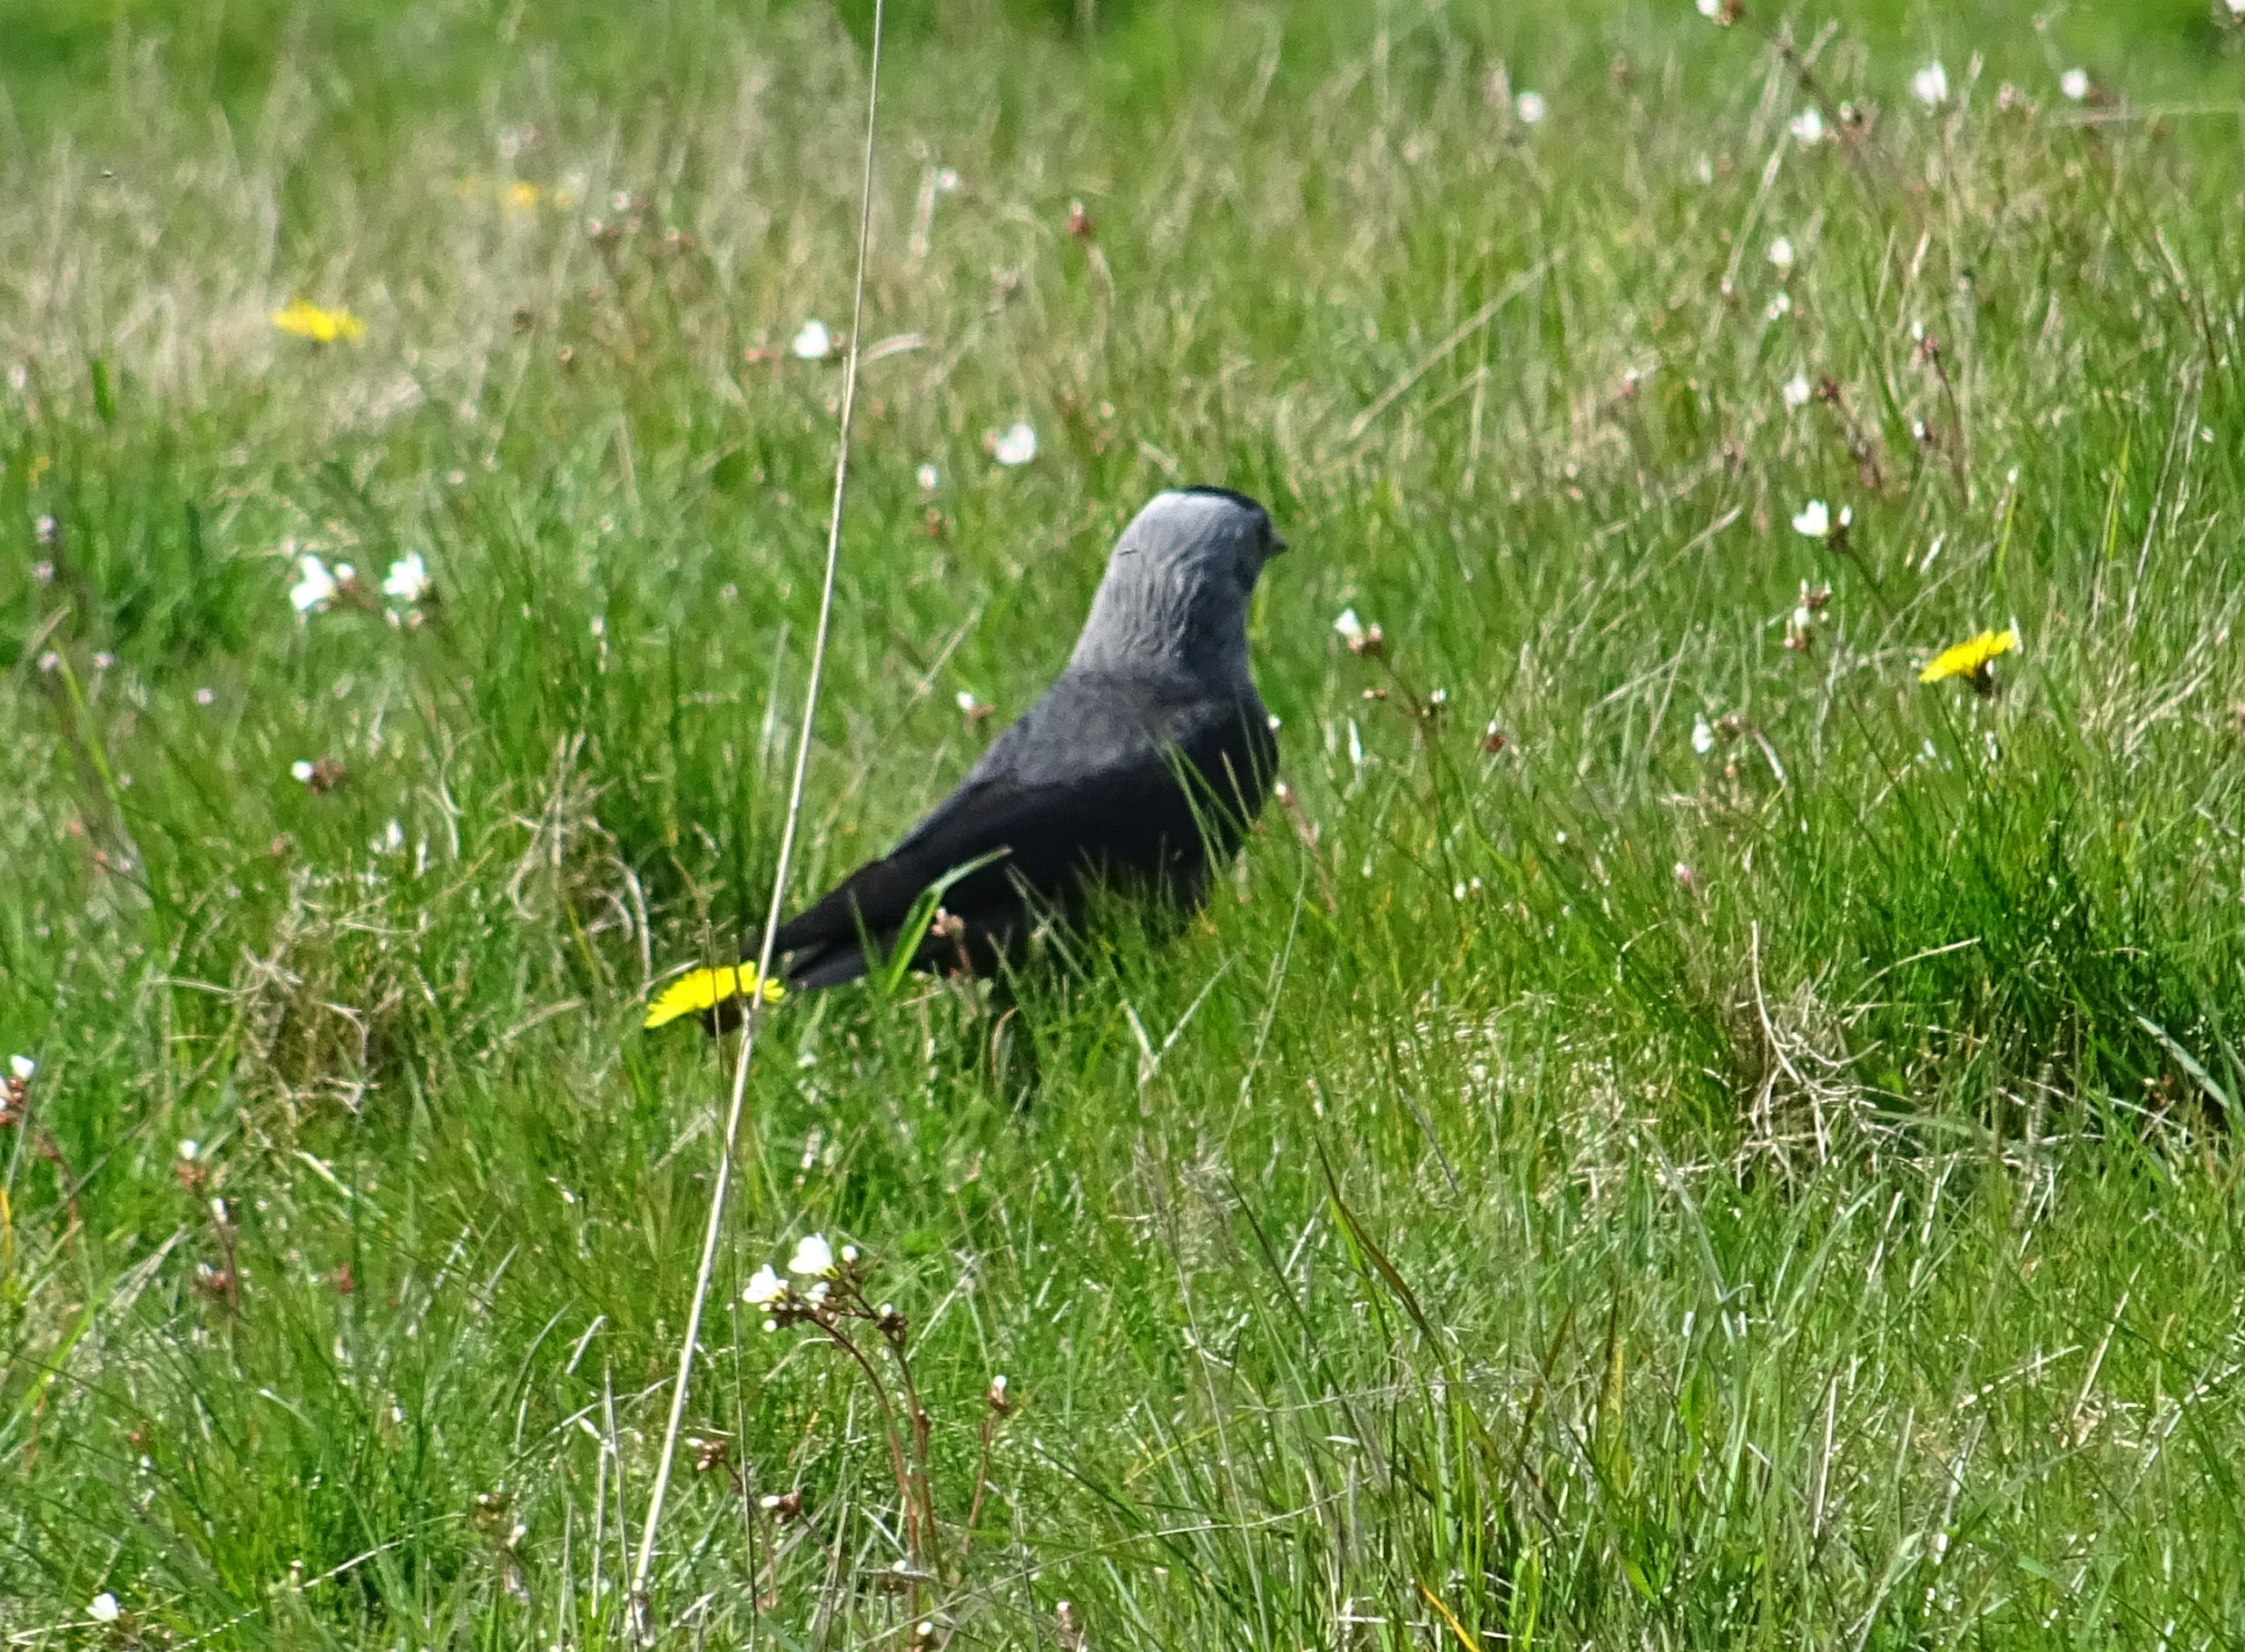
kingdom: Animalia
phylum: Chordata
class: Aves
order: Passeriformes
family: Corvidae
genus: Coloeus
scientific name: Coloeus monedula
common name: Allike
